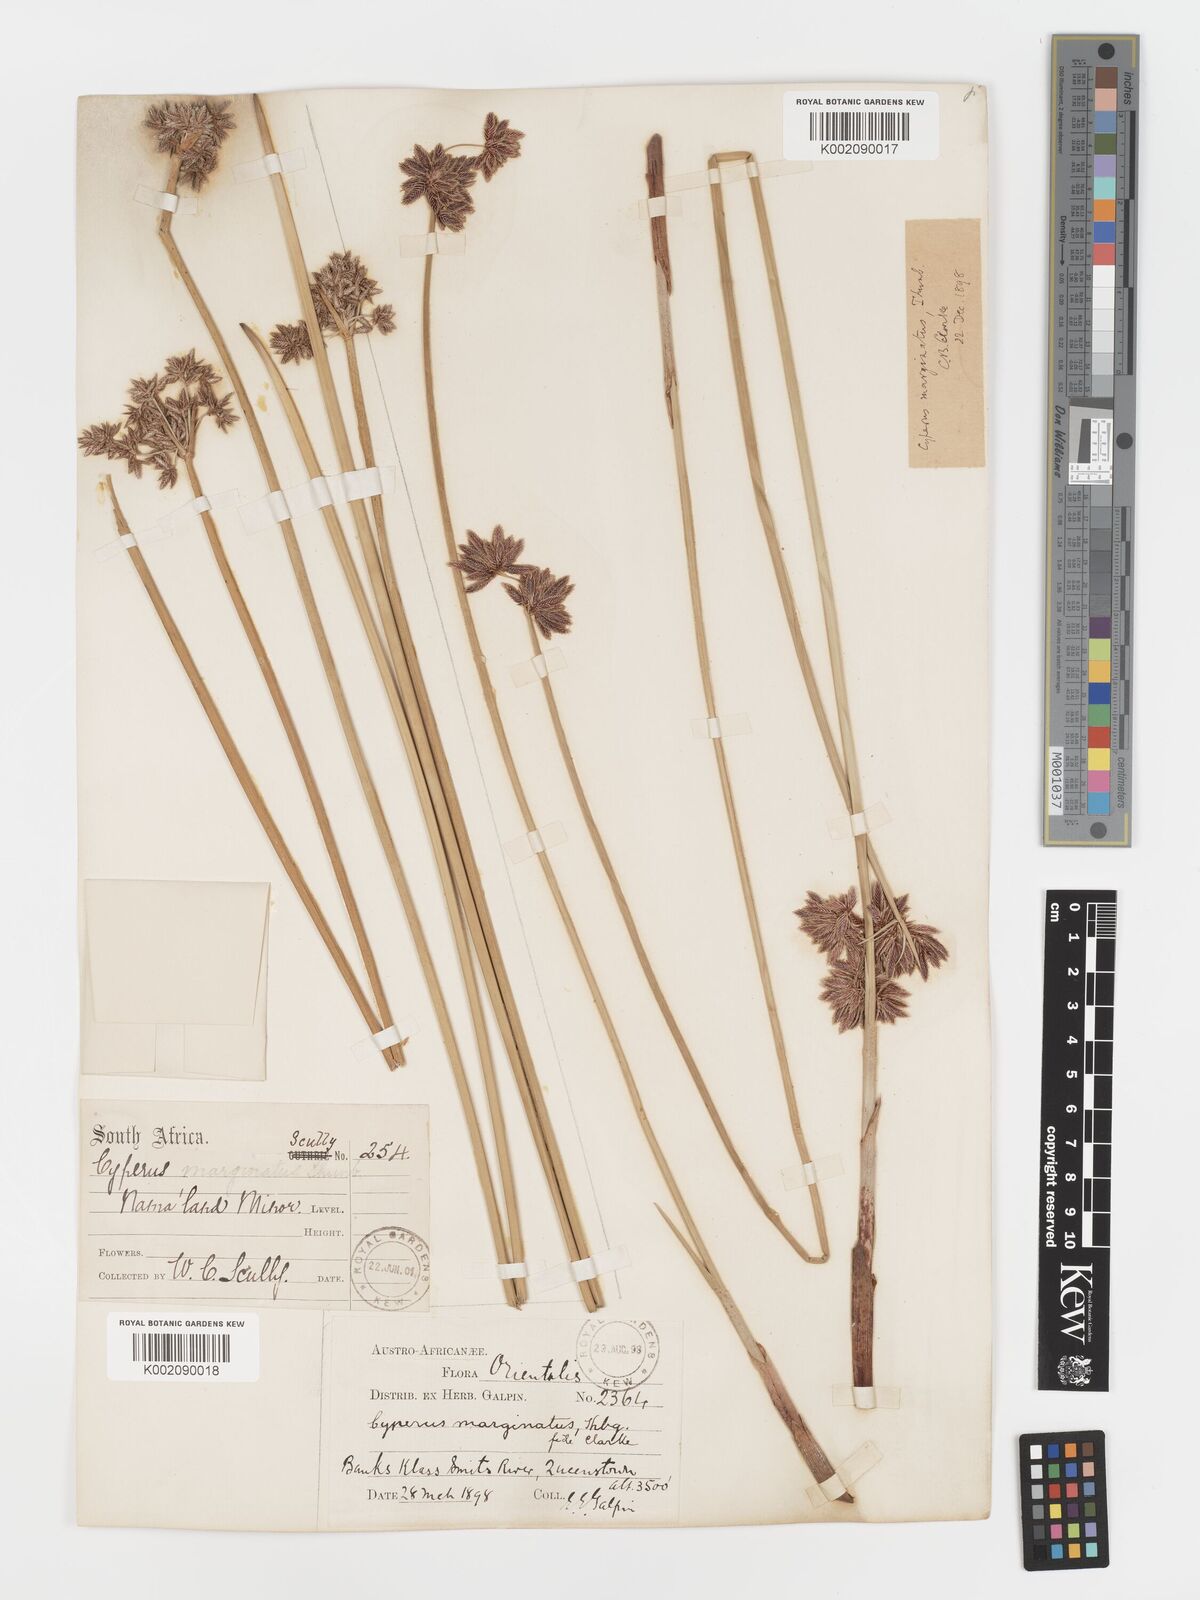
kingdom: Plantae
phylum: Tracheophyta
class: Liliopsida
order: Poales
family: Cyperaceae
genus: Cyperus
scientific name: Cyperus marginatus
